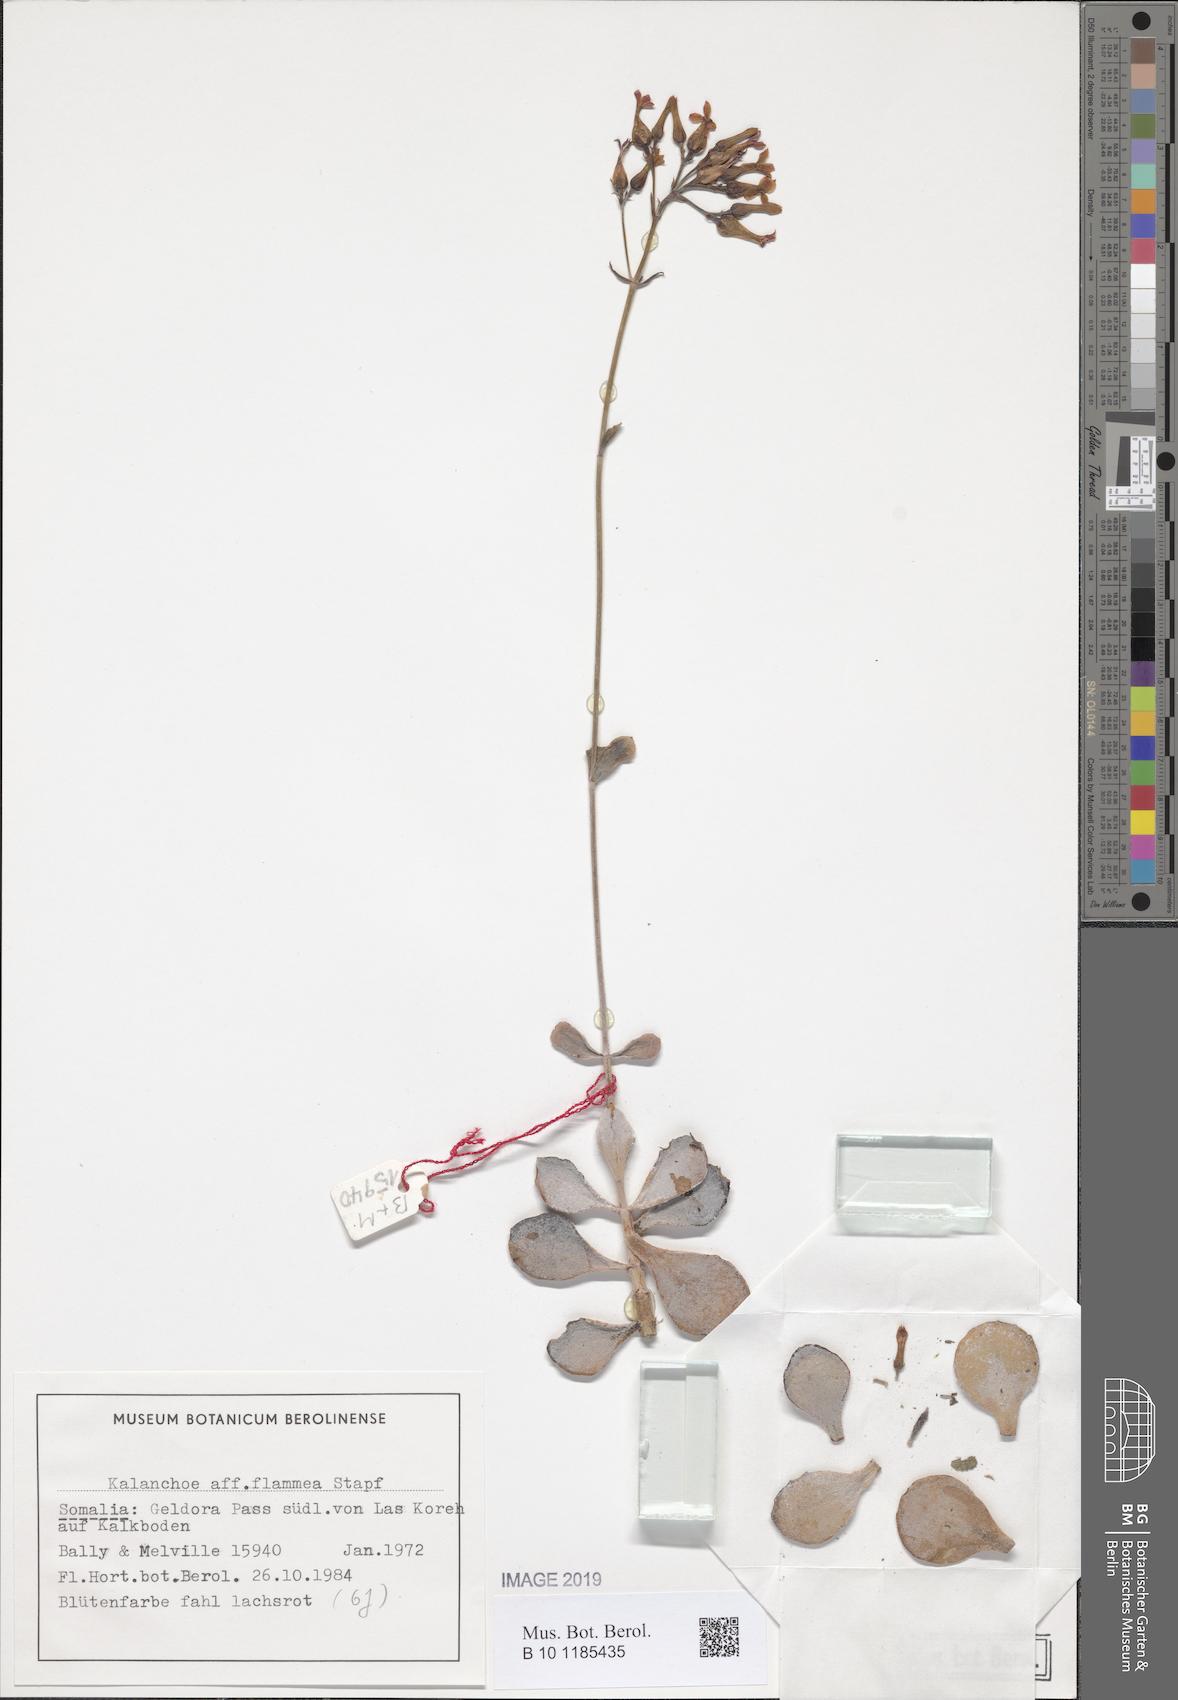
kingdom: Plantae
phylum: Tracheophyta
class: Magnoliopsida
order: Saxifragales
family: Crassulaceae
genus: Kalanchoe
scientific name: Kalanchoe glaucescens
